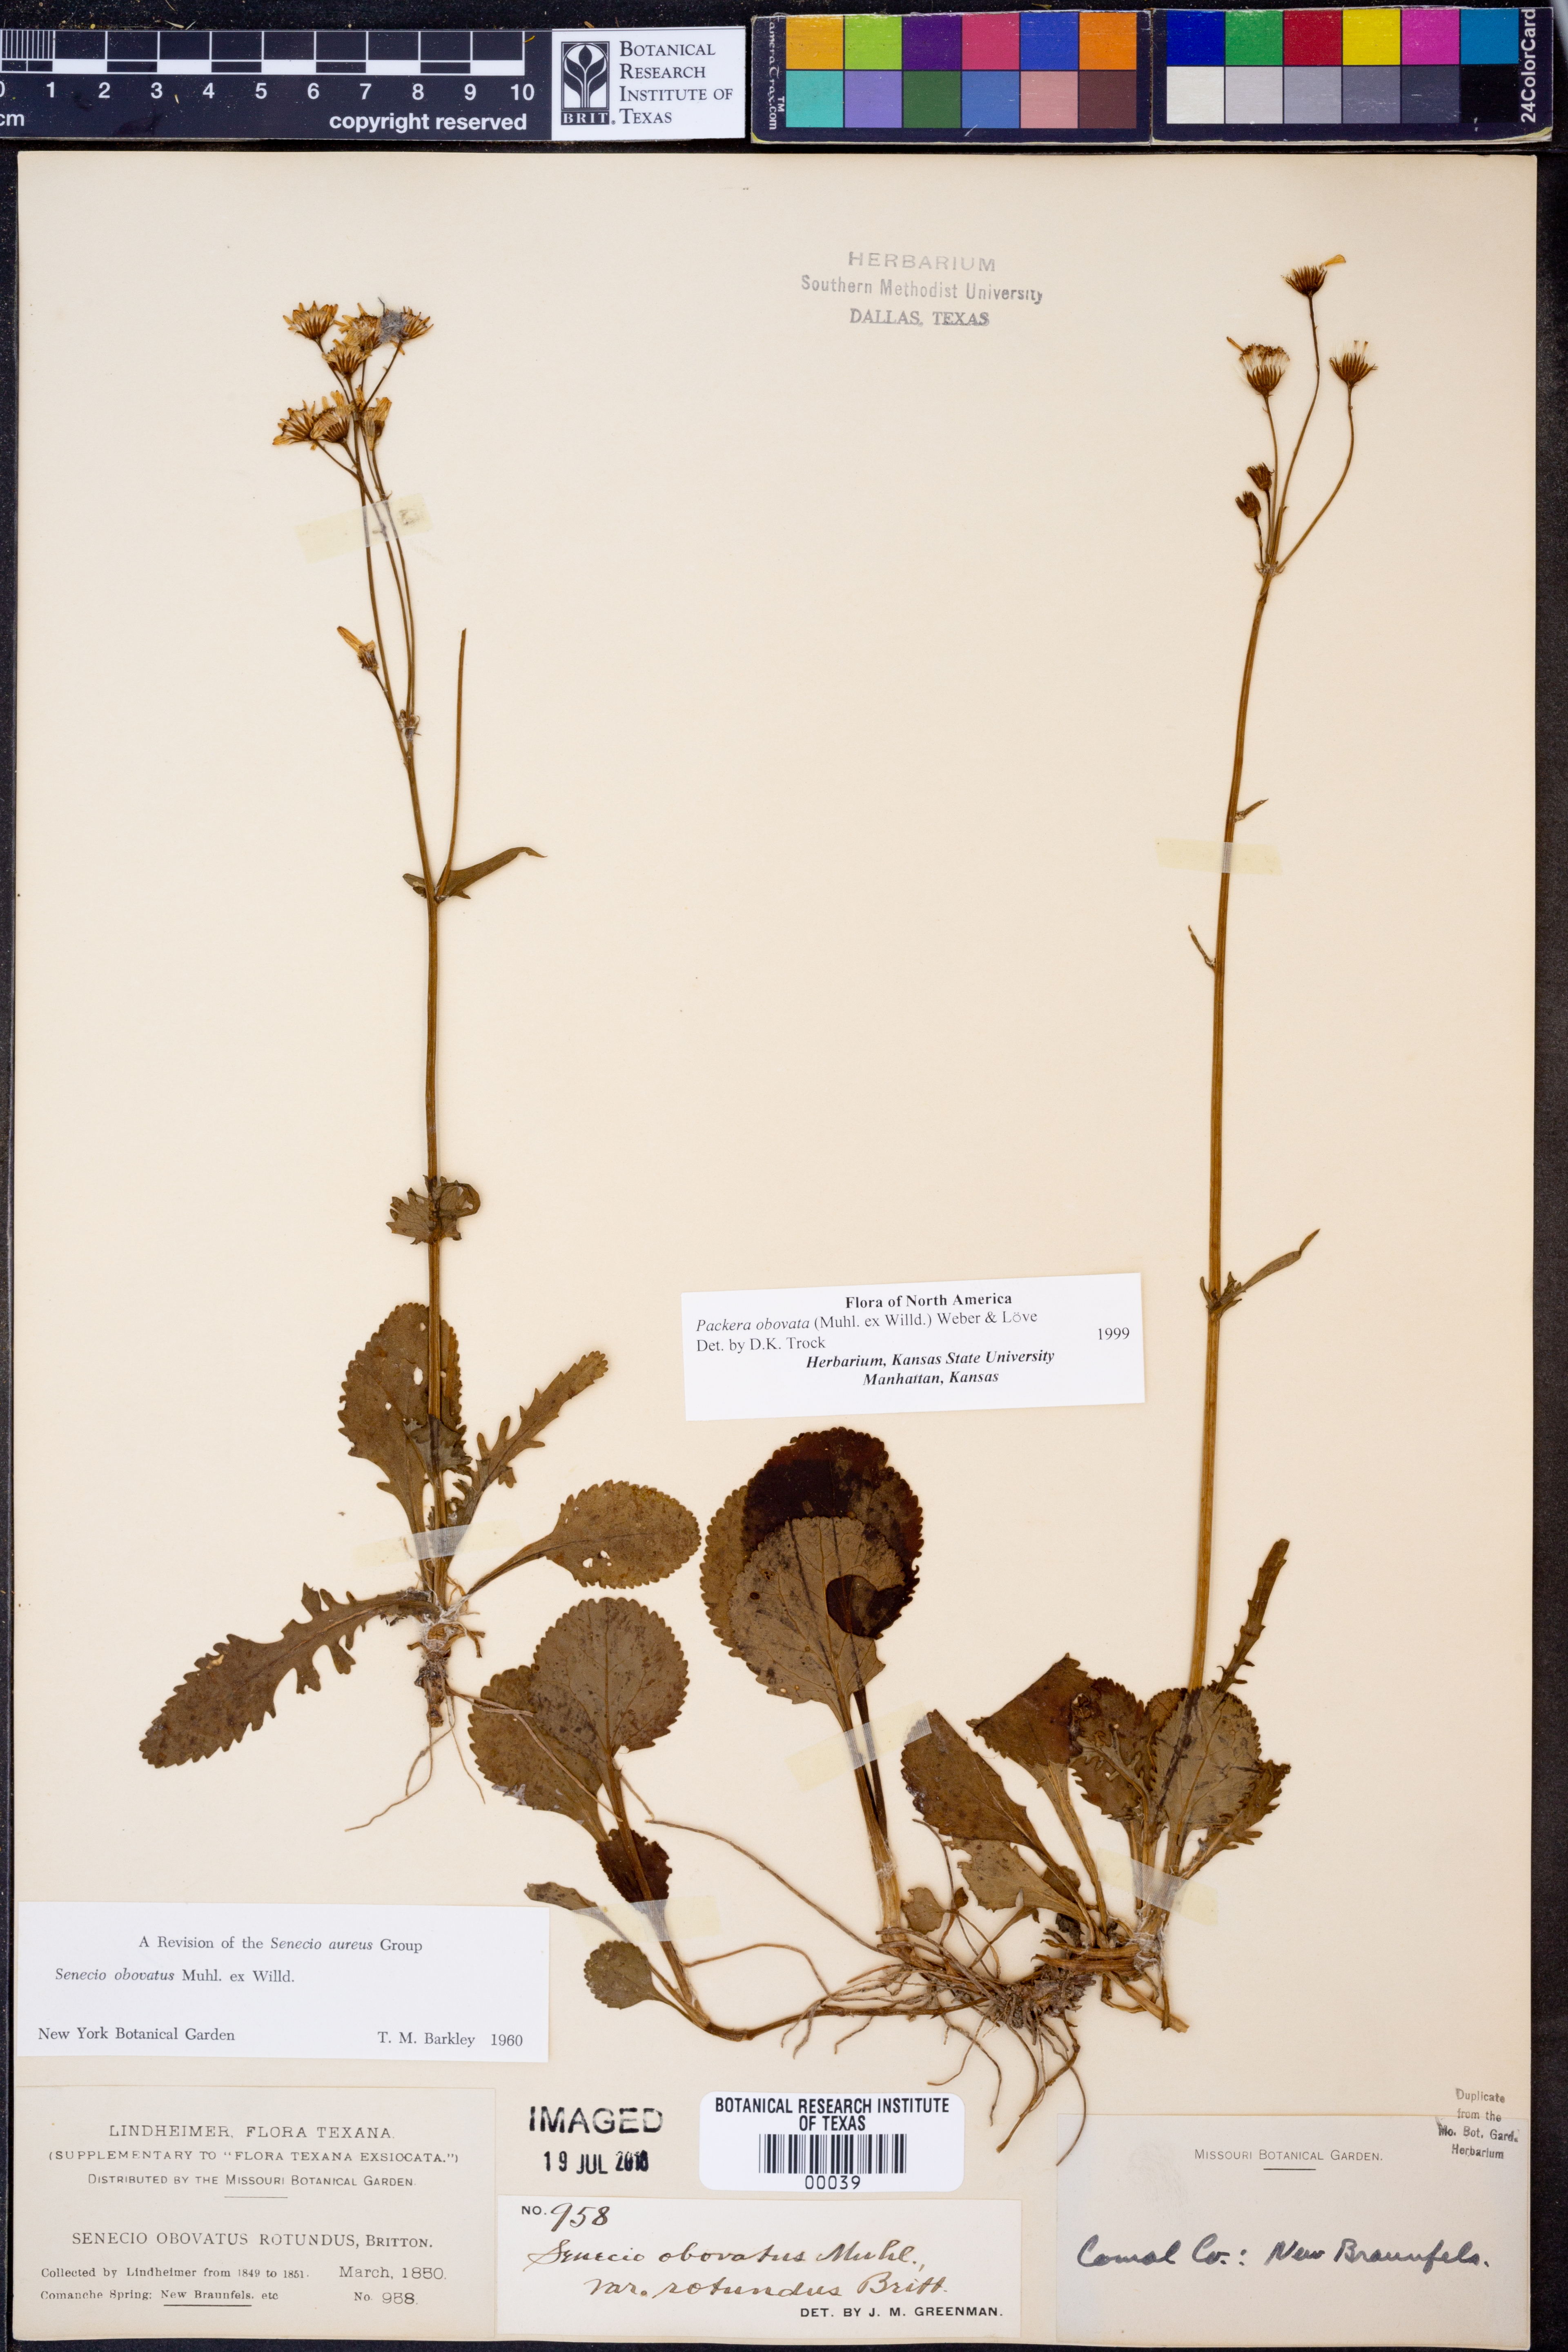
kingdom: Plantae
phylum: Tracheophyta
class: Magnoliopsida
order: Asterales
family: Asteraceae
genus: Packera
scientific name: Packera obovata
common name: Round-leaf ragwort
